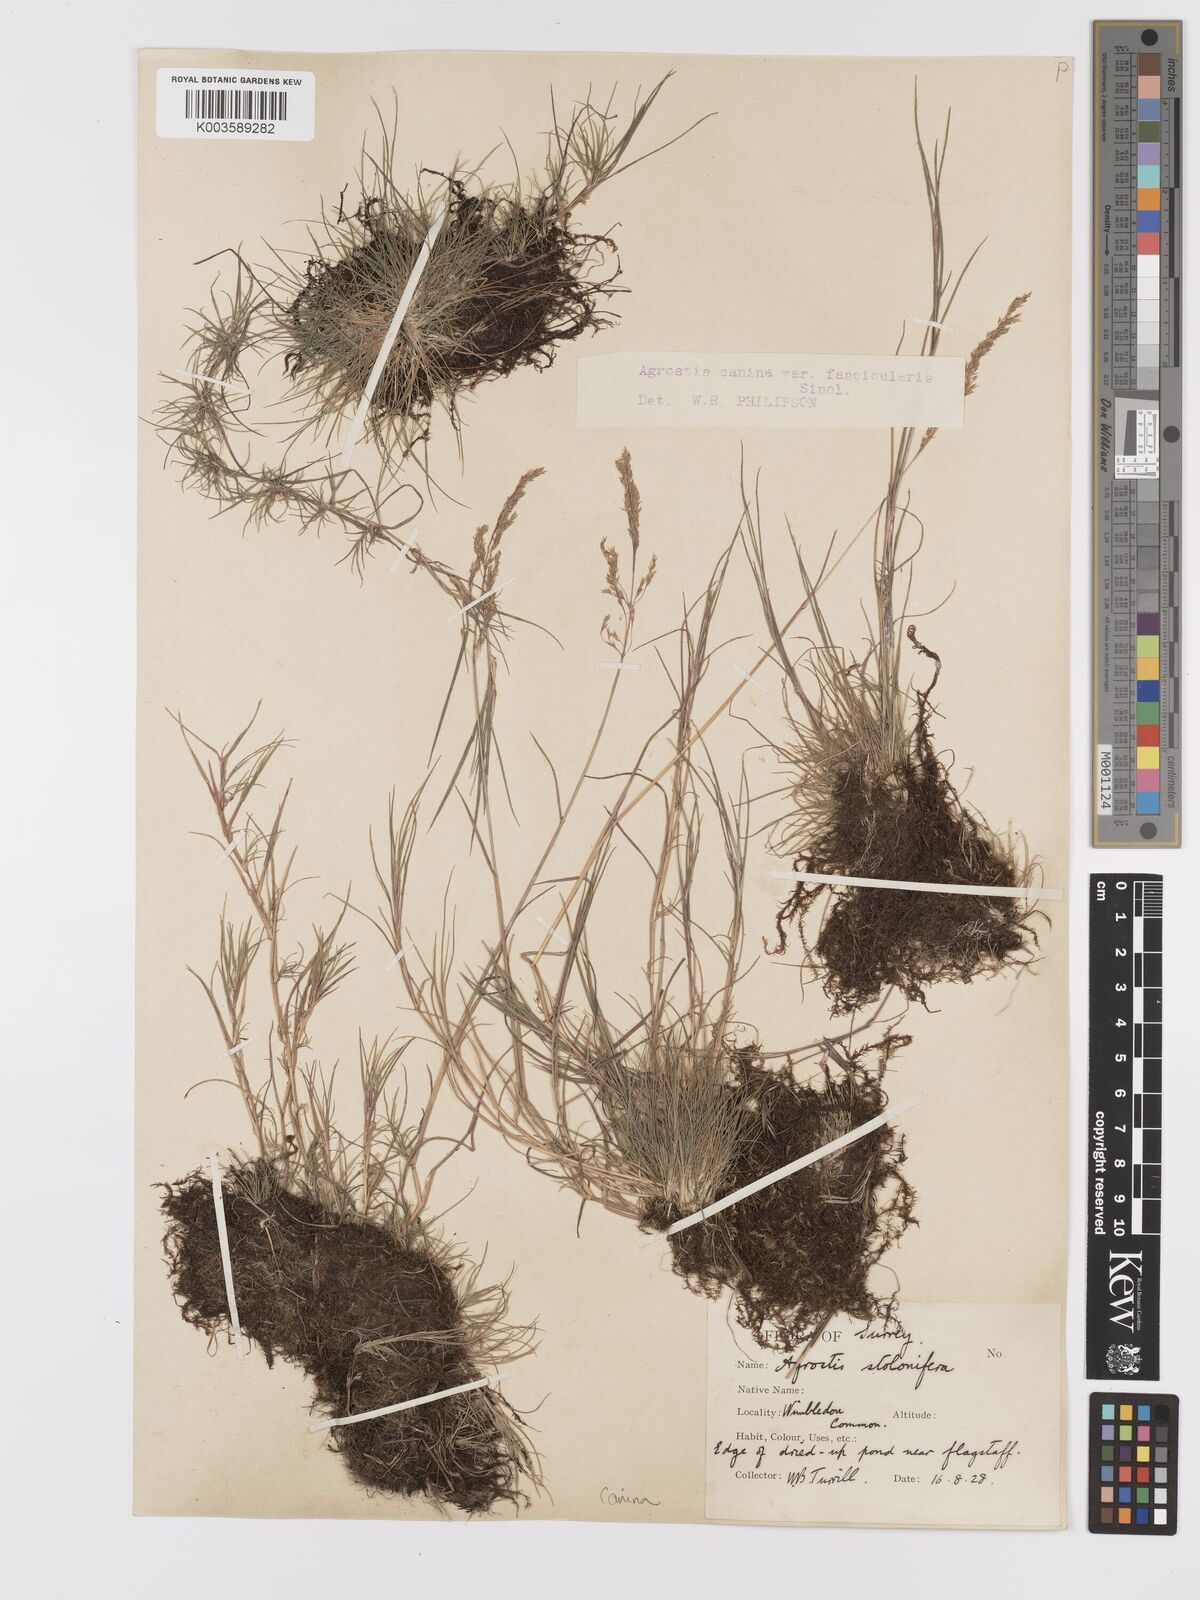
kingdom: Plantae
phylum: Tracheophyta
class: Liliopsida
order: Poales
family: Poaceae
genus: Agrostis
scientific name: Agrostis canina
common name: Velvet bent
